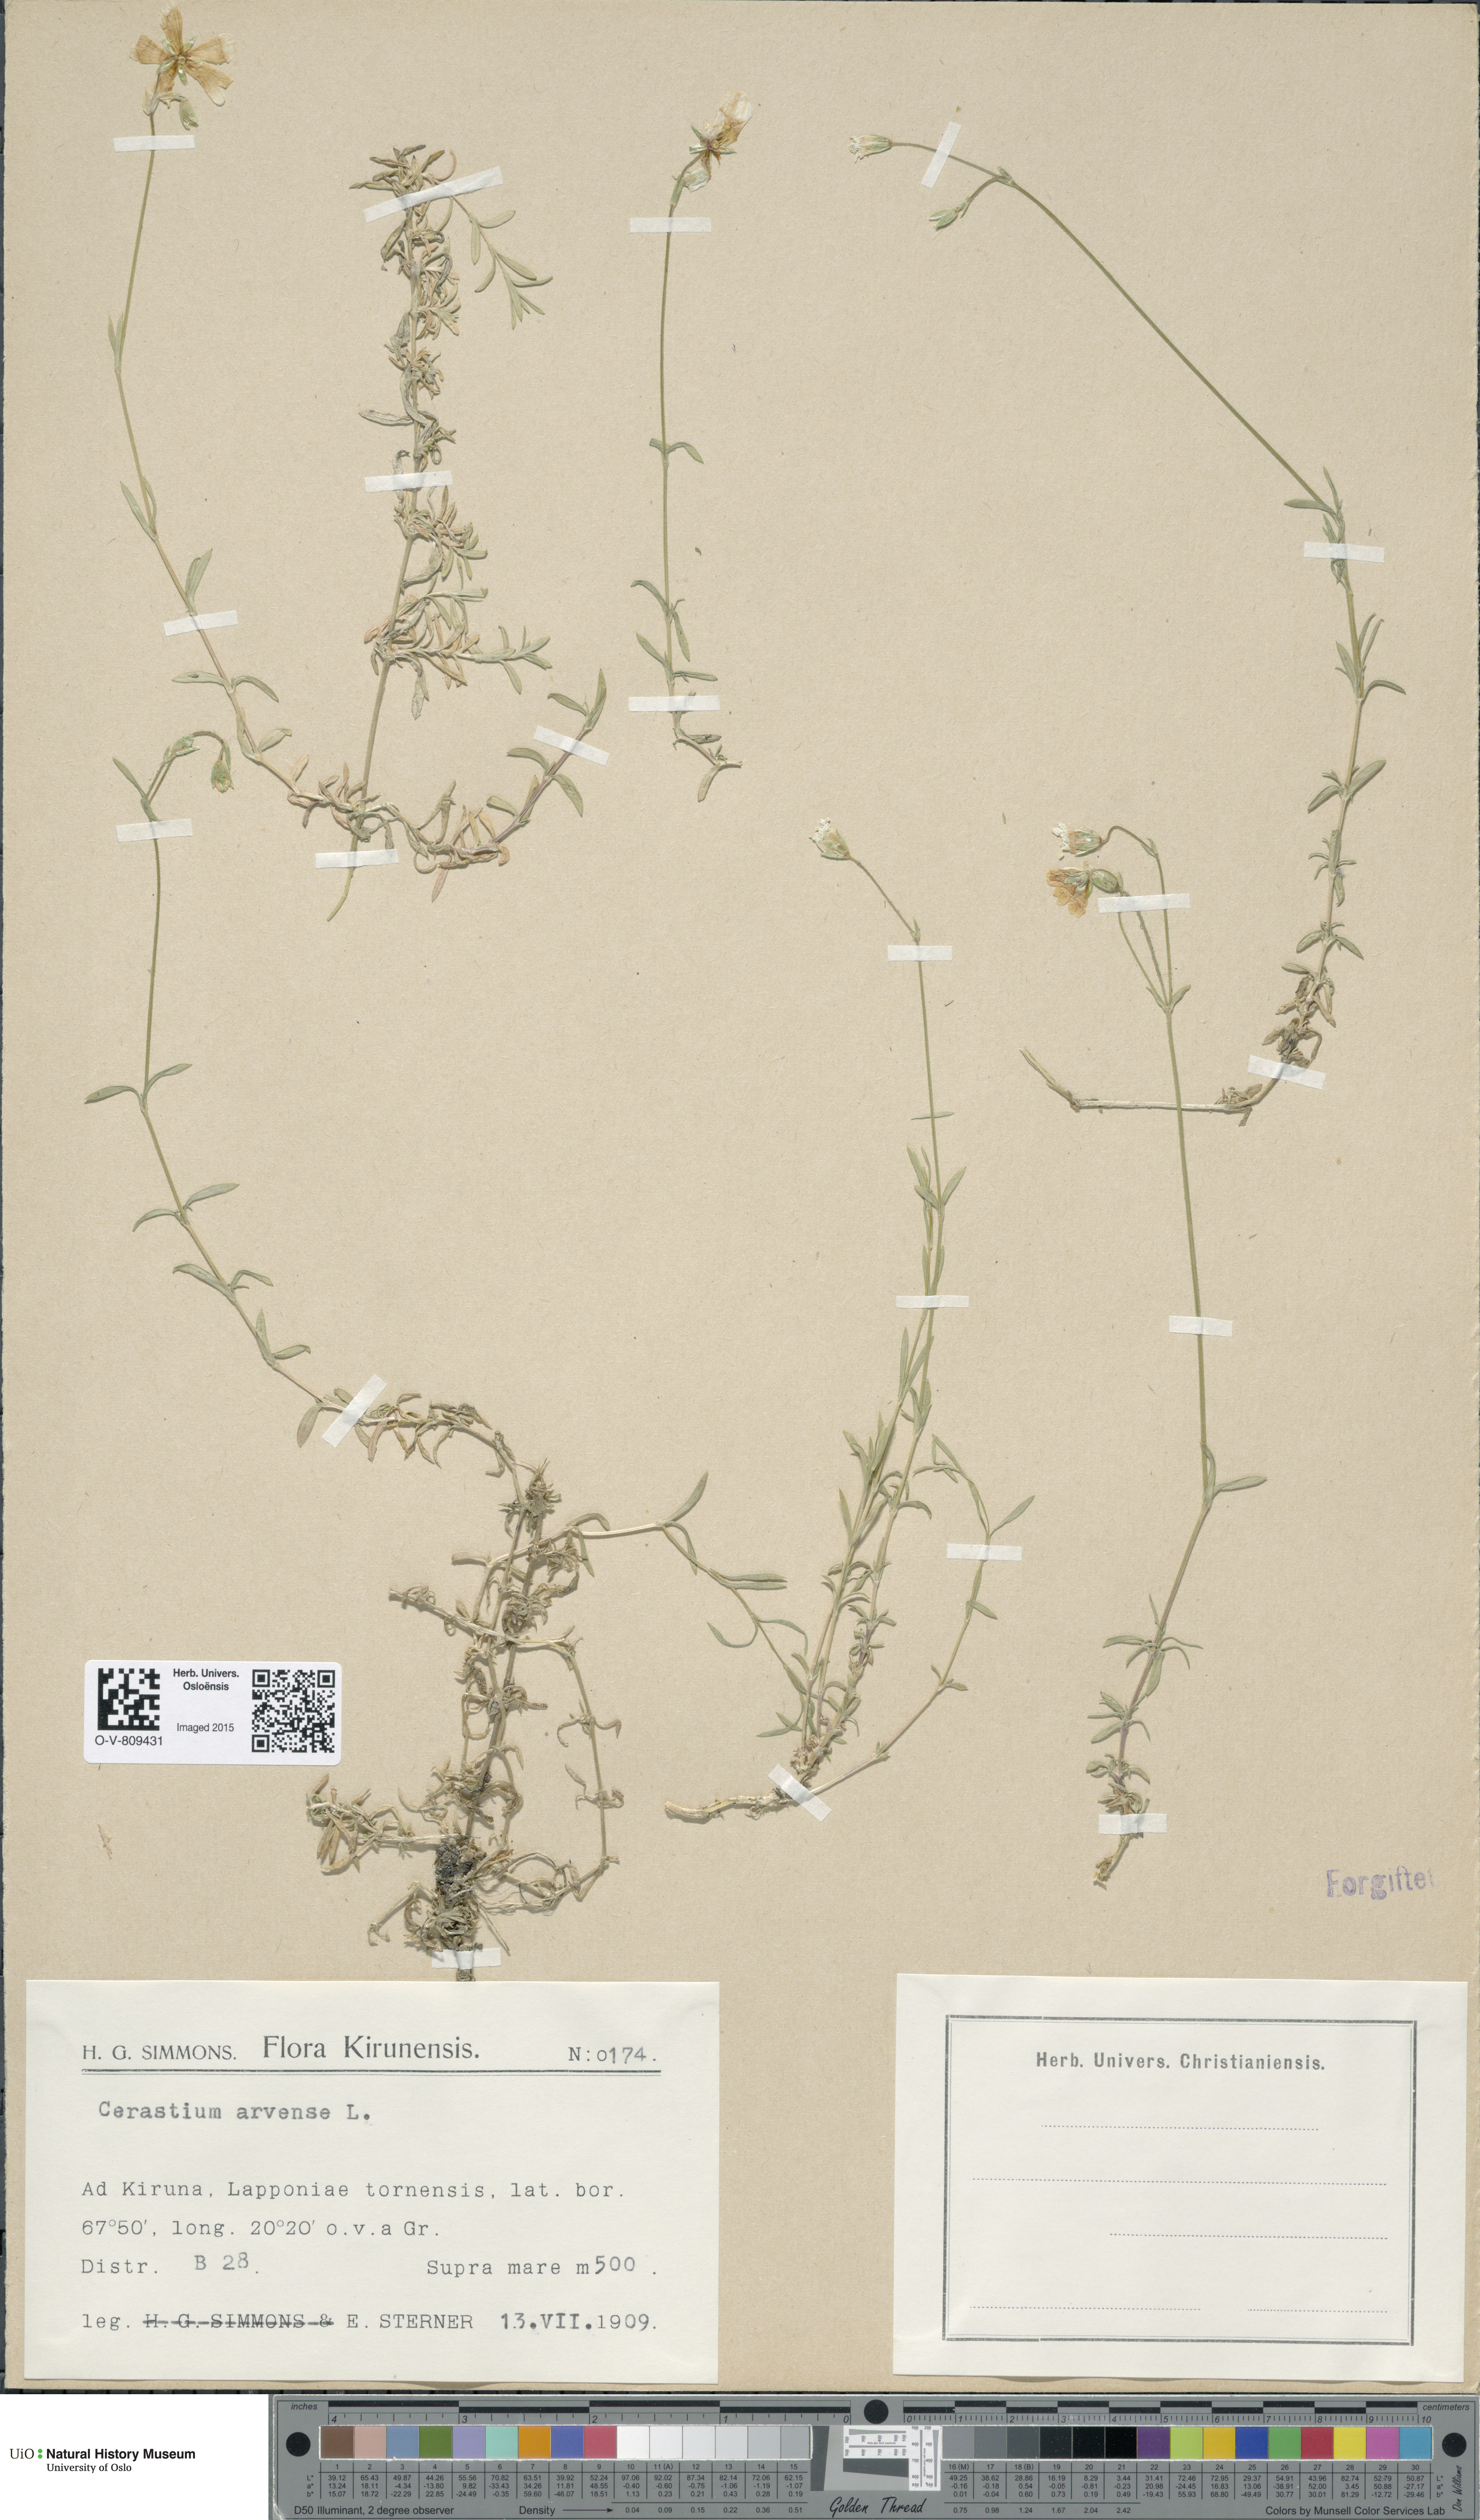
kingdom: Plantae
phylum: Tracheophyta
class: Magnoliopsida
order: Caryophyllales
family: Caryophyllaceae
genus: Cerastium
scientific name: Cerastium arvense
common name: Field mouse-ear
